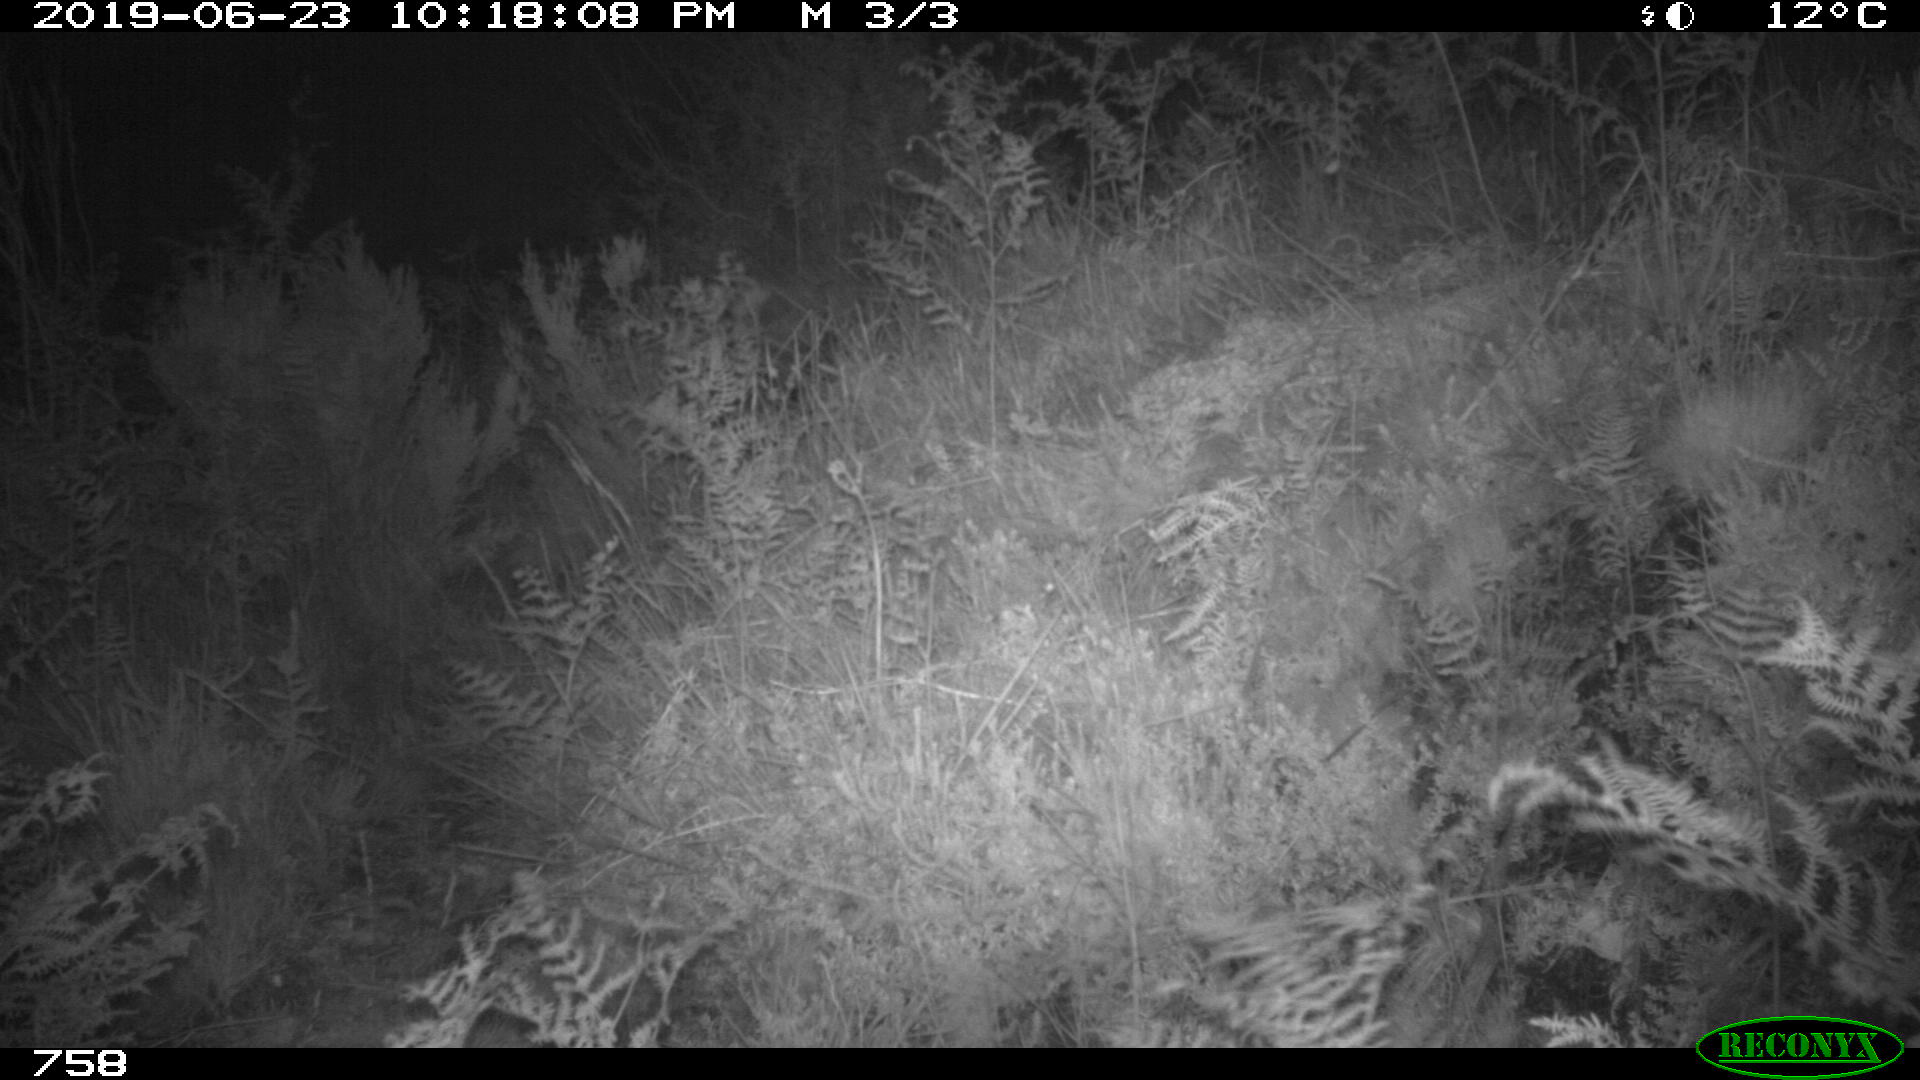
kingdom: Animalia
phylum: Chordata
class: Mammalia
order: Artiodactyla
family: Suidae
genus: Sus
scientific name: Sus scrofa
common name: Wild boar
